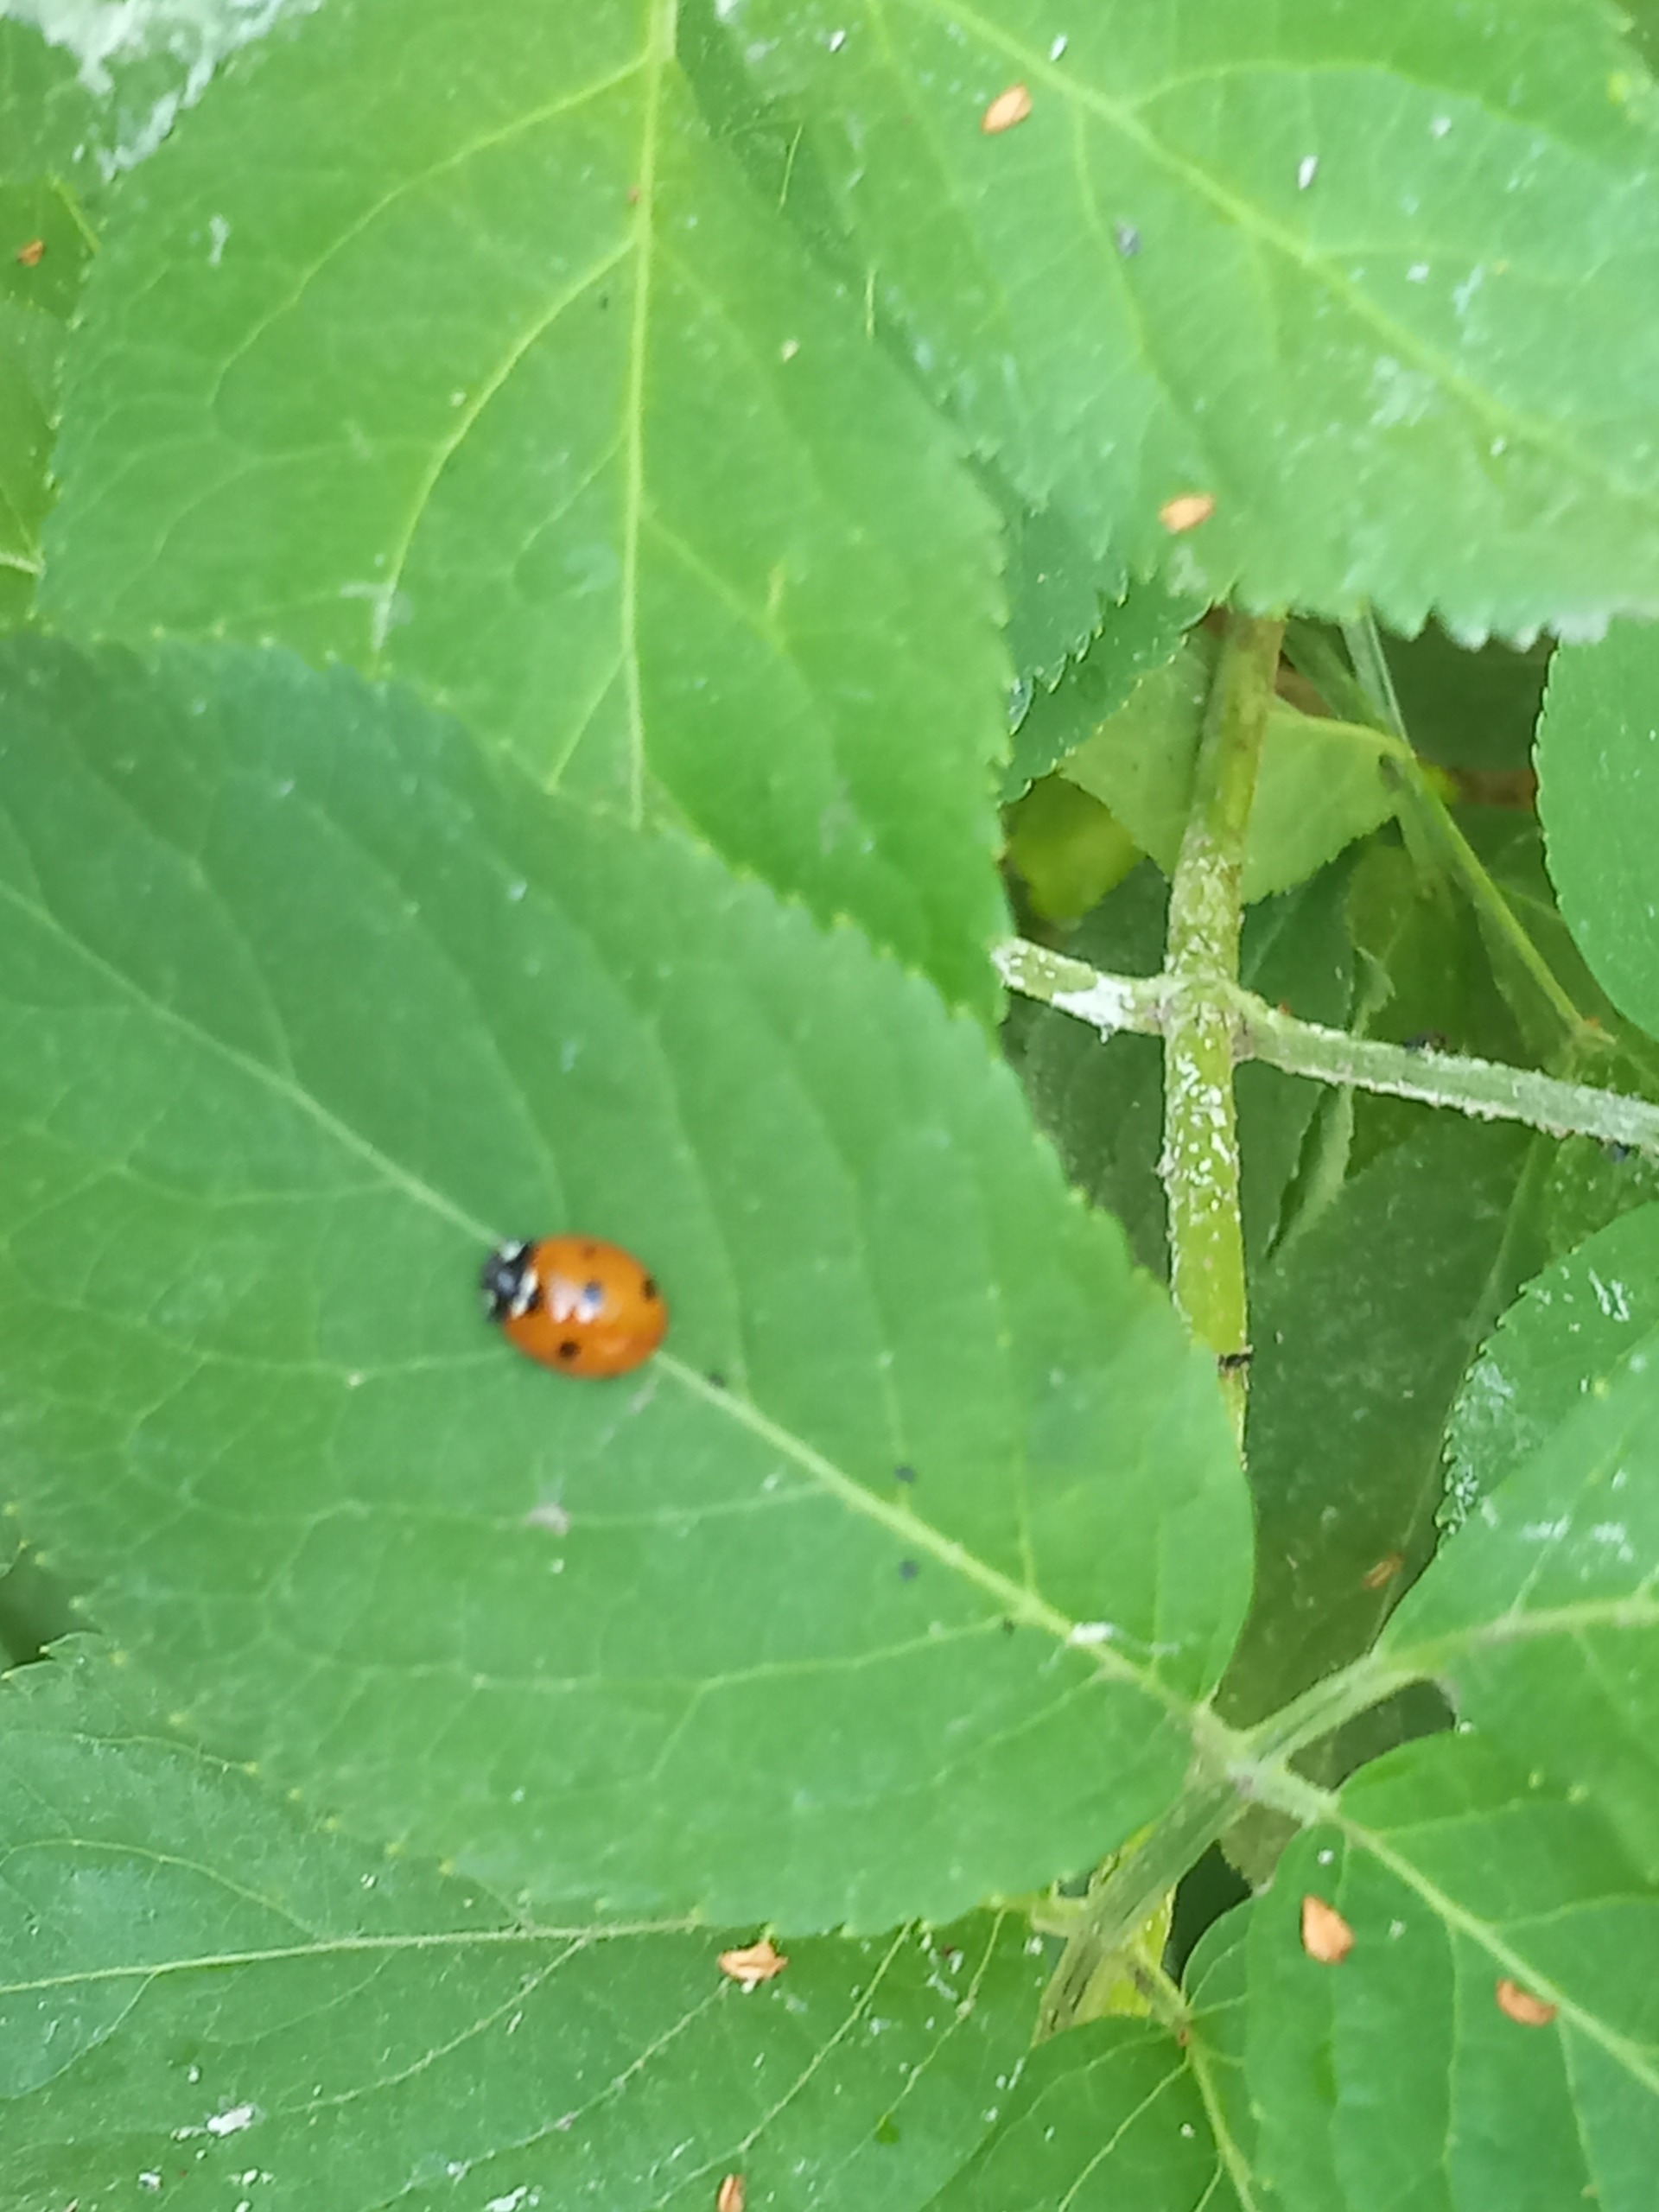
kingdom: Animalia
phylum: Arthropoda
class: Insecta
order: Coleoptera
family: Coccinellidae
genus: Coccinella
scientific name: Coccinella septempunctata
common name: Syvplettet mariehøne
